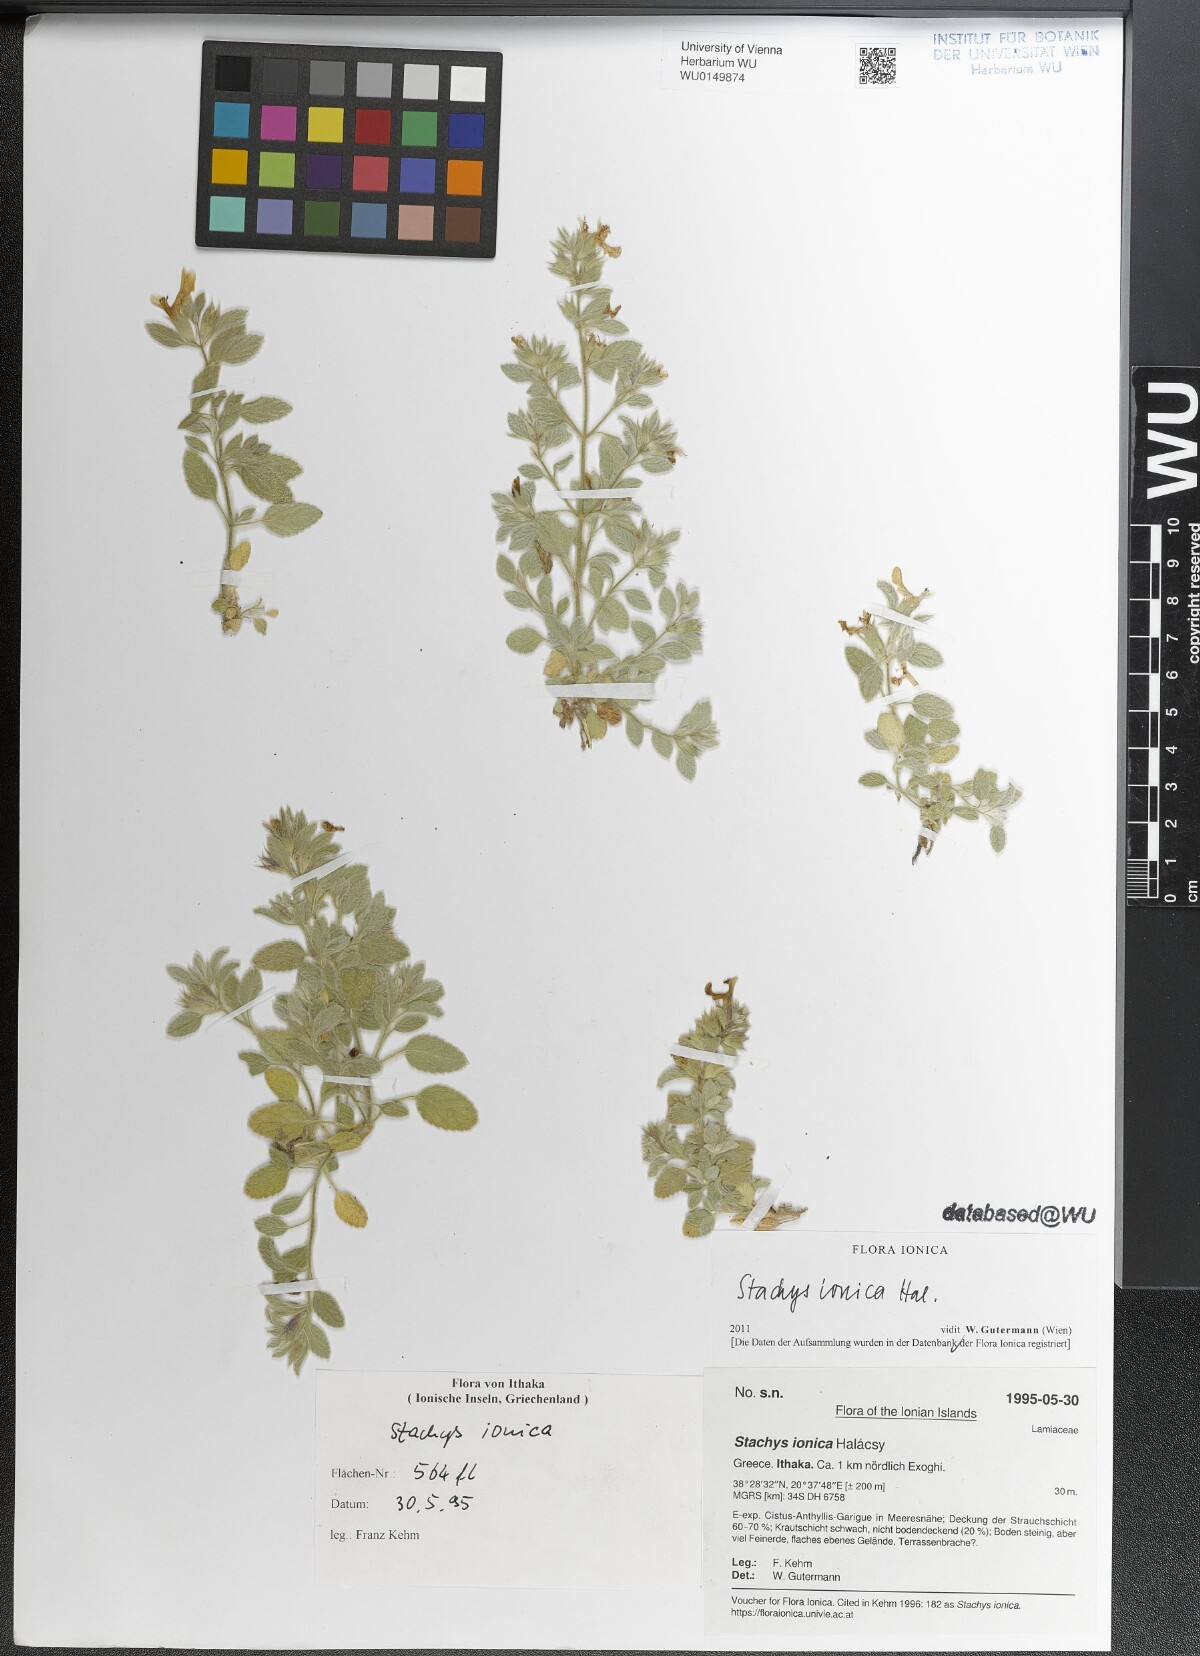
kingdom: Plantae
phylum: Tracheophyta
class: Magnoliopsida
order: Lamiales
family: Lamiaceae
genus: Stachys
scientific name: Stachys ionica
